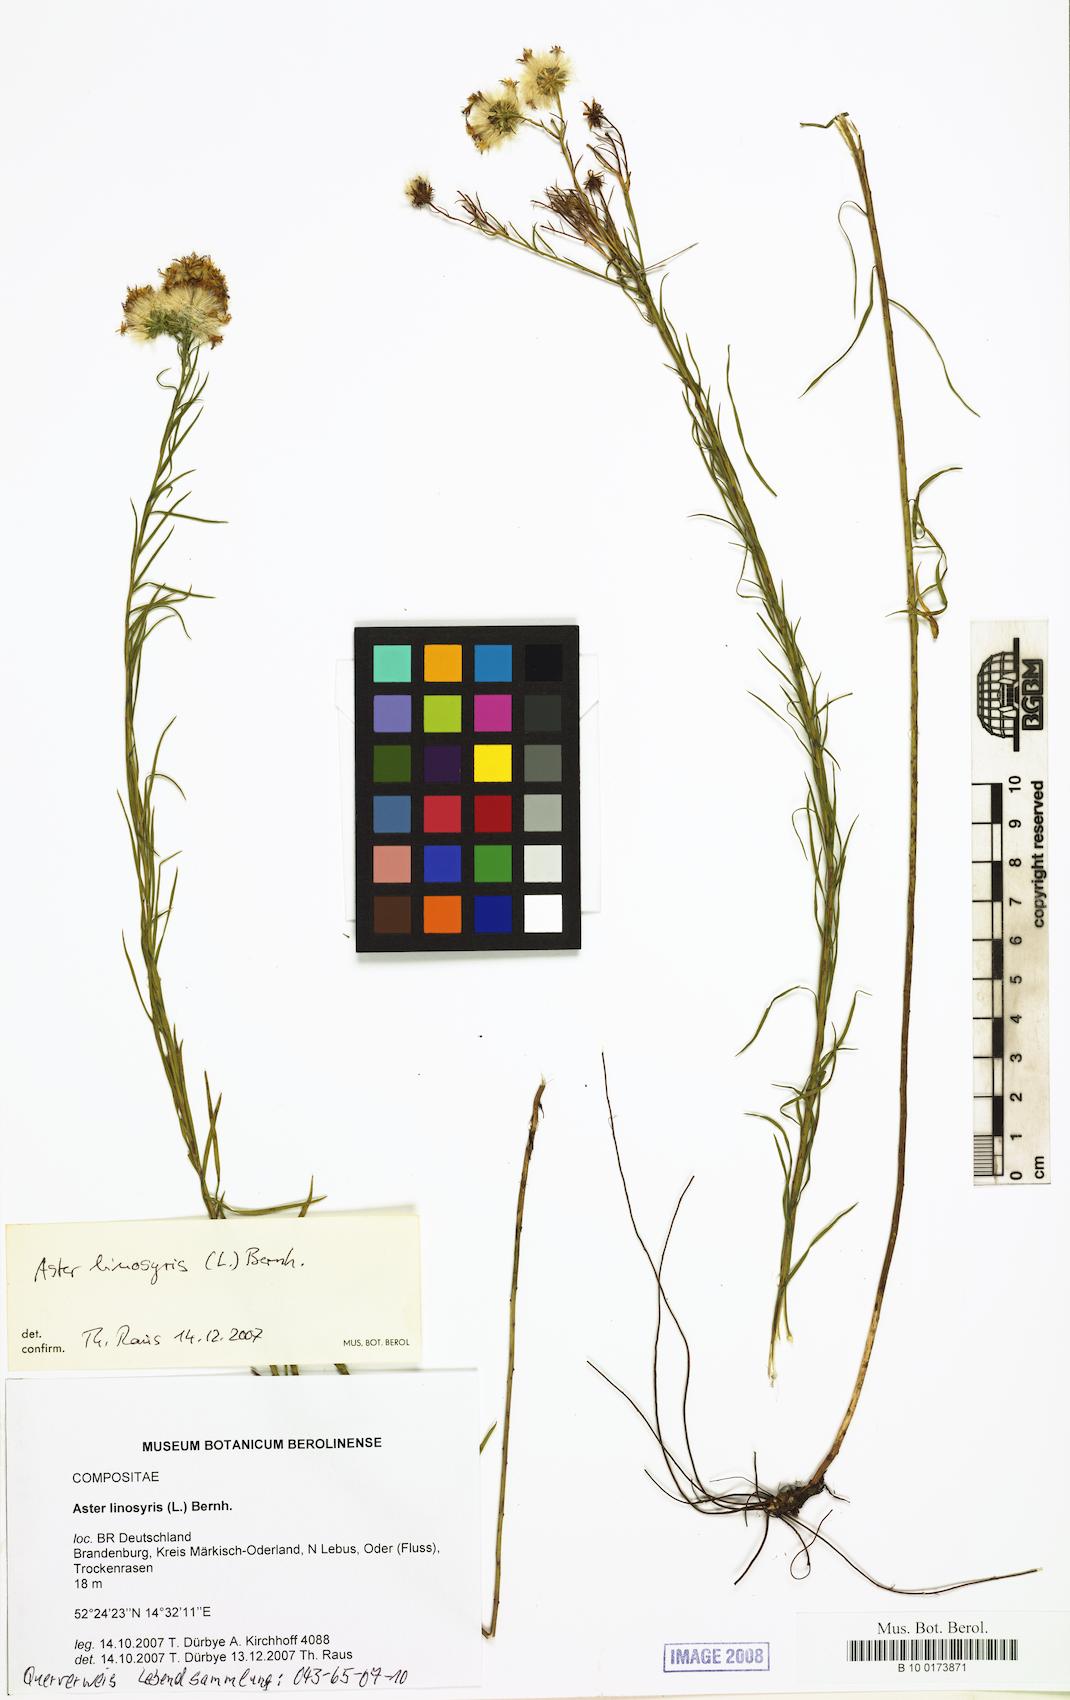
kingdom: Plantae
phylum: Tracheophyta
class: Magnoliopsida
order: Asterales
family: Asteraceae
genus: Galatella
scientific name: Galatella linosyris
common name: Goldilocks aster
